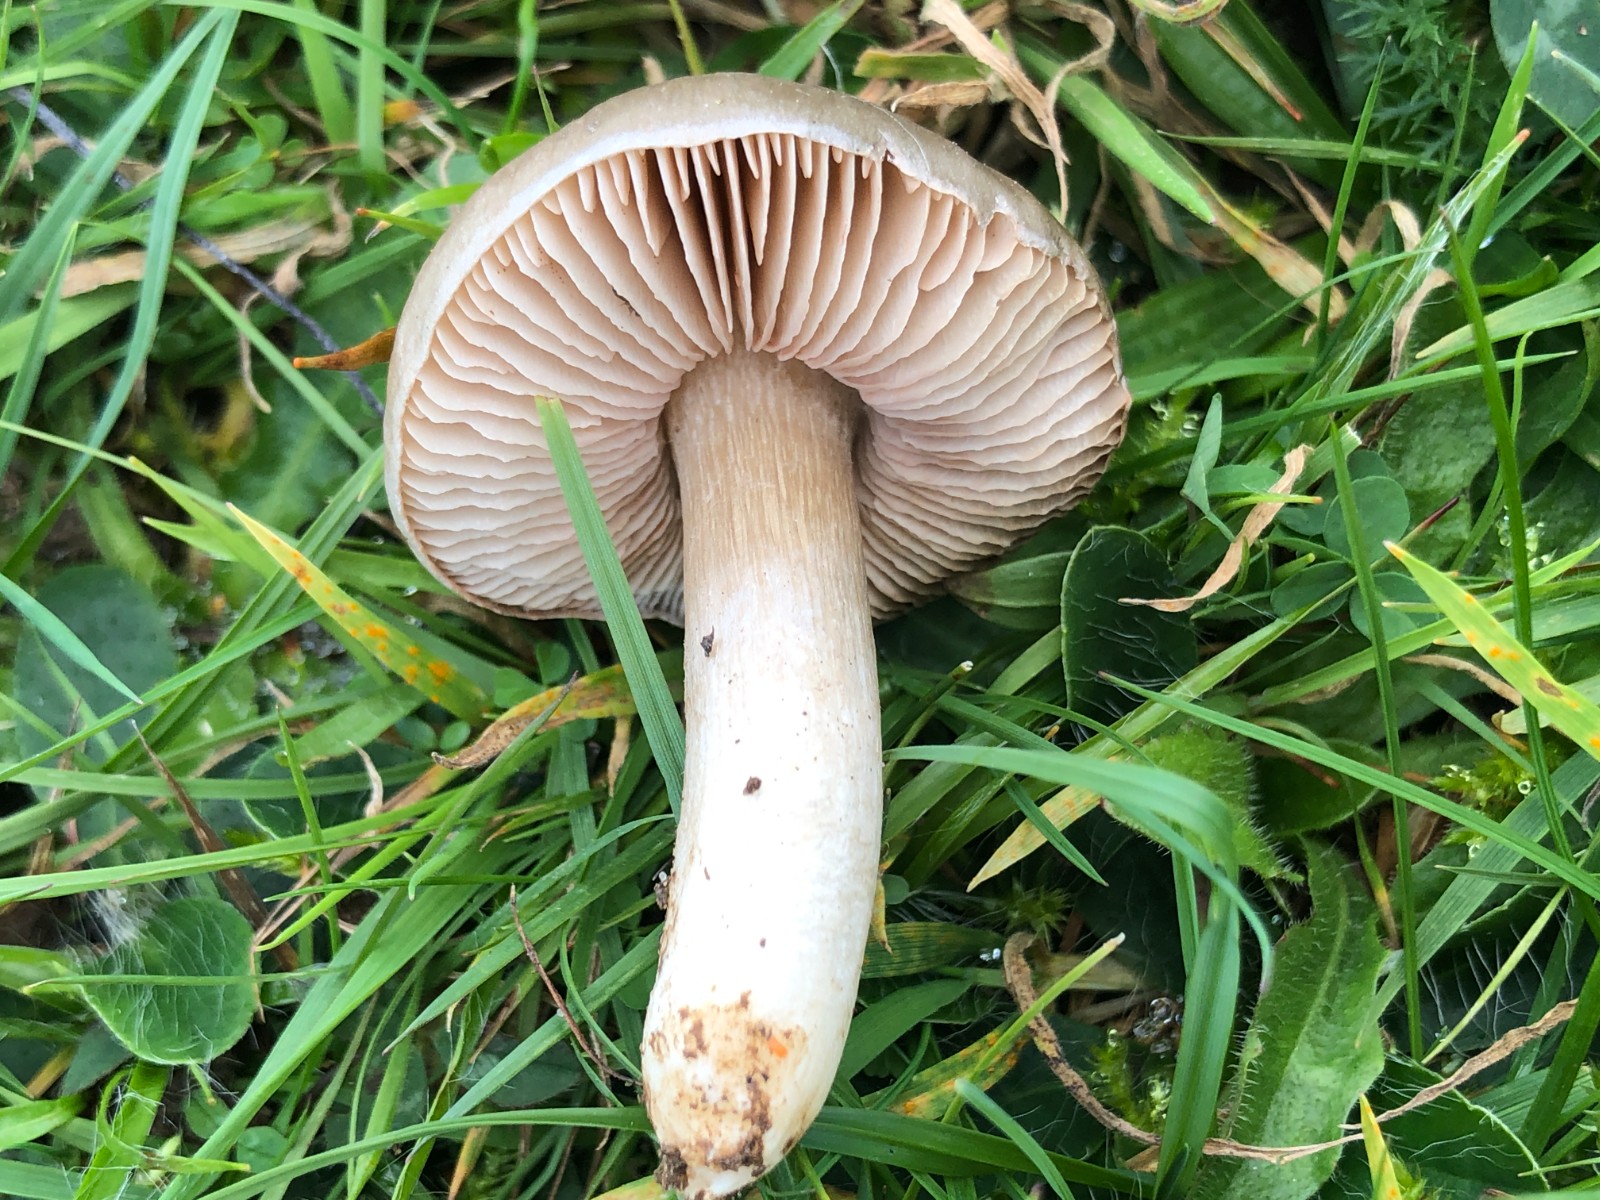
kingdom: Fungi
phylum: Basidiomycota
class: Agaricomycetes
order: Agaricales
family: Entolomataceae
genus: Entoloma
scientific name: Entoloma prunuloides
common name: mel-rødblad
